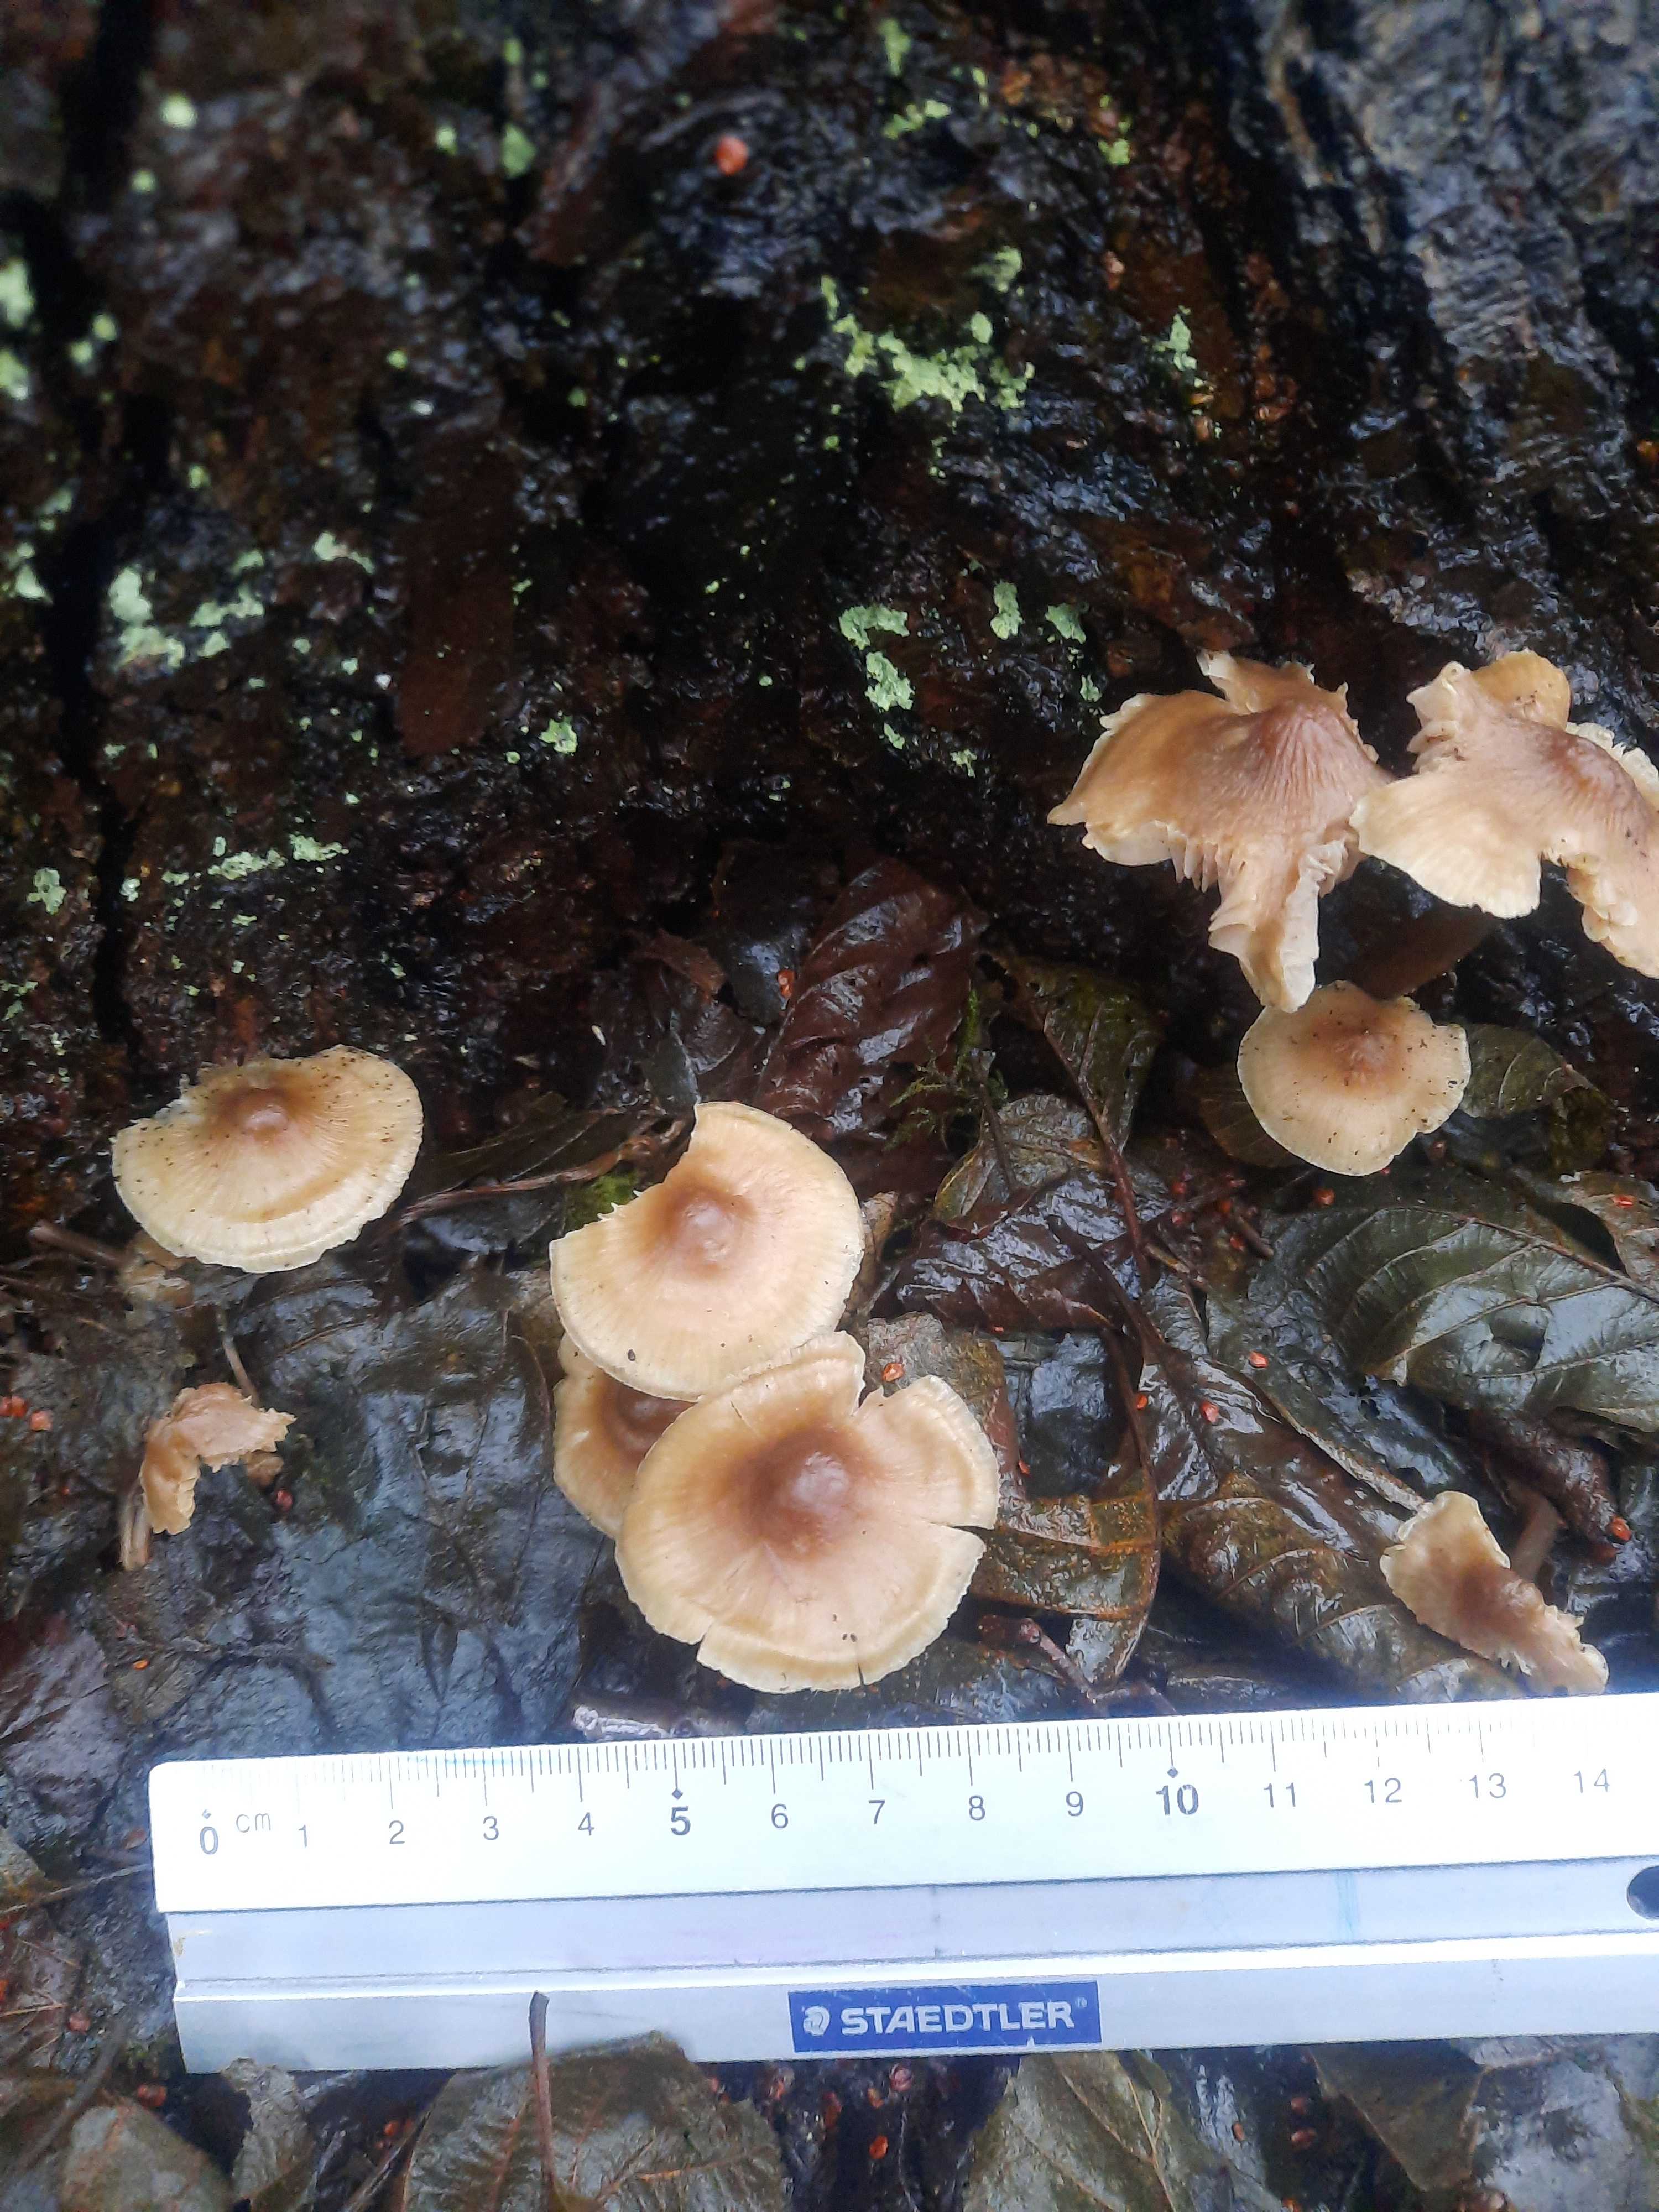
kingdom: Fungi
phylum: Basidiomycota
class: Agaricomycetes
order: Agaricales
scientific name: Agaricales
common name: champignonordenen
